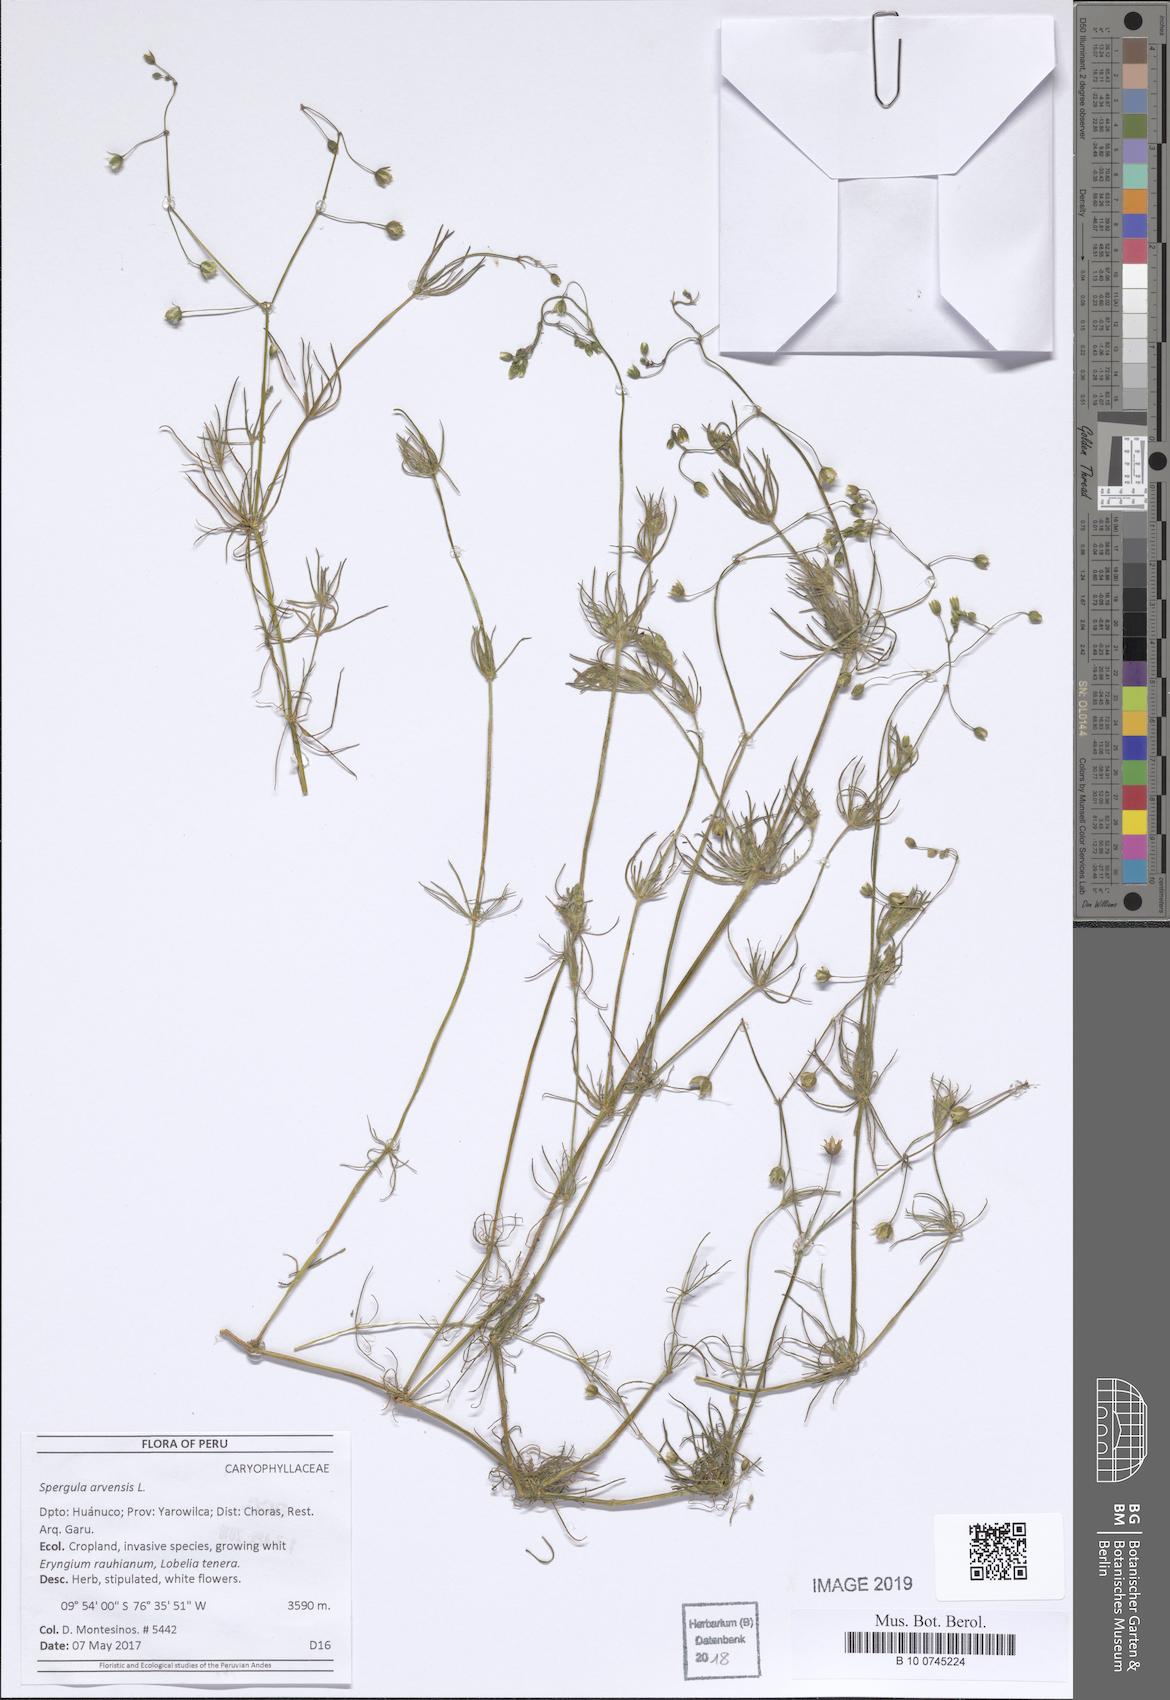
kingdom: Plantae
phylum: Tracheophyta
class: Magnoliopsida
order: Caryophyllales
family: Caryophyllaceae
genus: Spergula
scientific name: Spergula arvensis
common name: Corn spurrey
